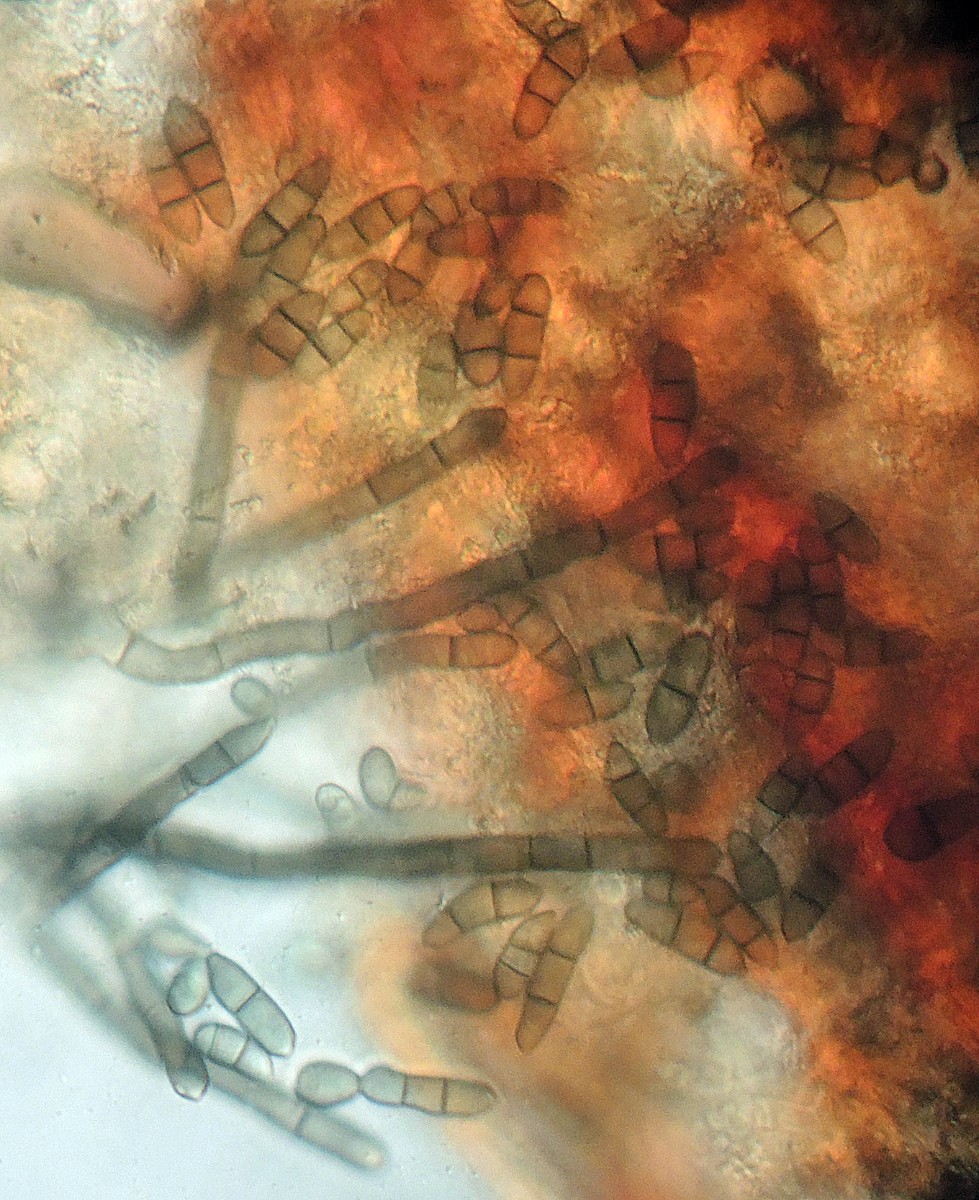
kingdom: Fungi
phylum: Ascomycota
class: Leotiomycetes
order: Helotiales
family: Mollisiaceae
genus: Diplococcium
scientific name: Diplococcium clarkii
